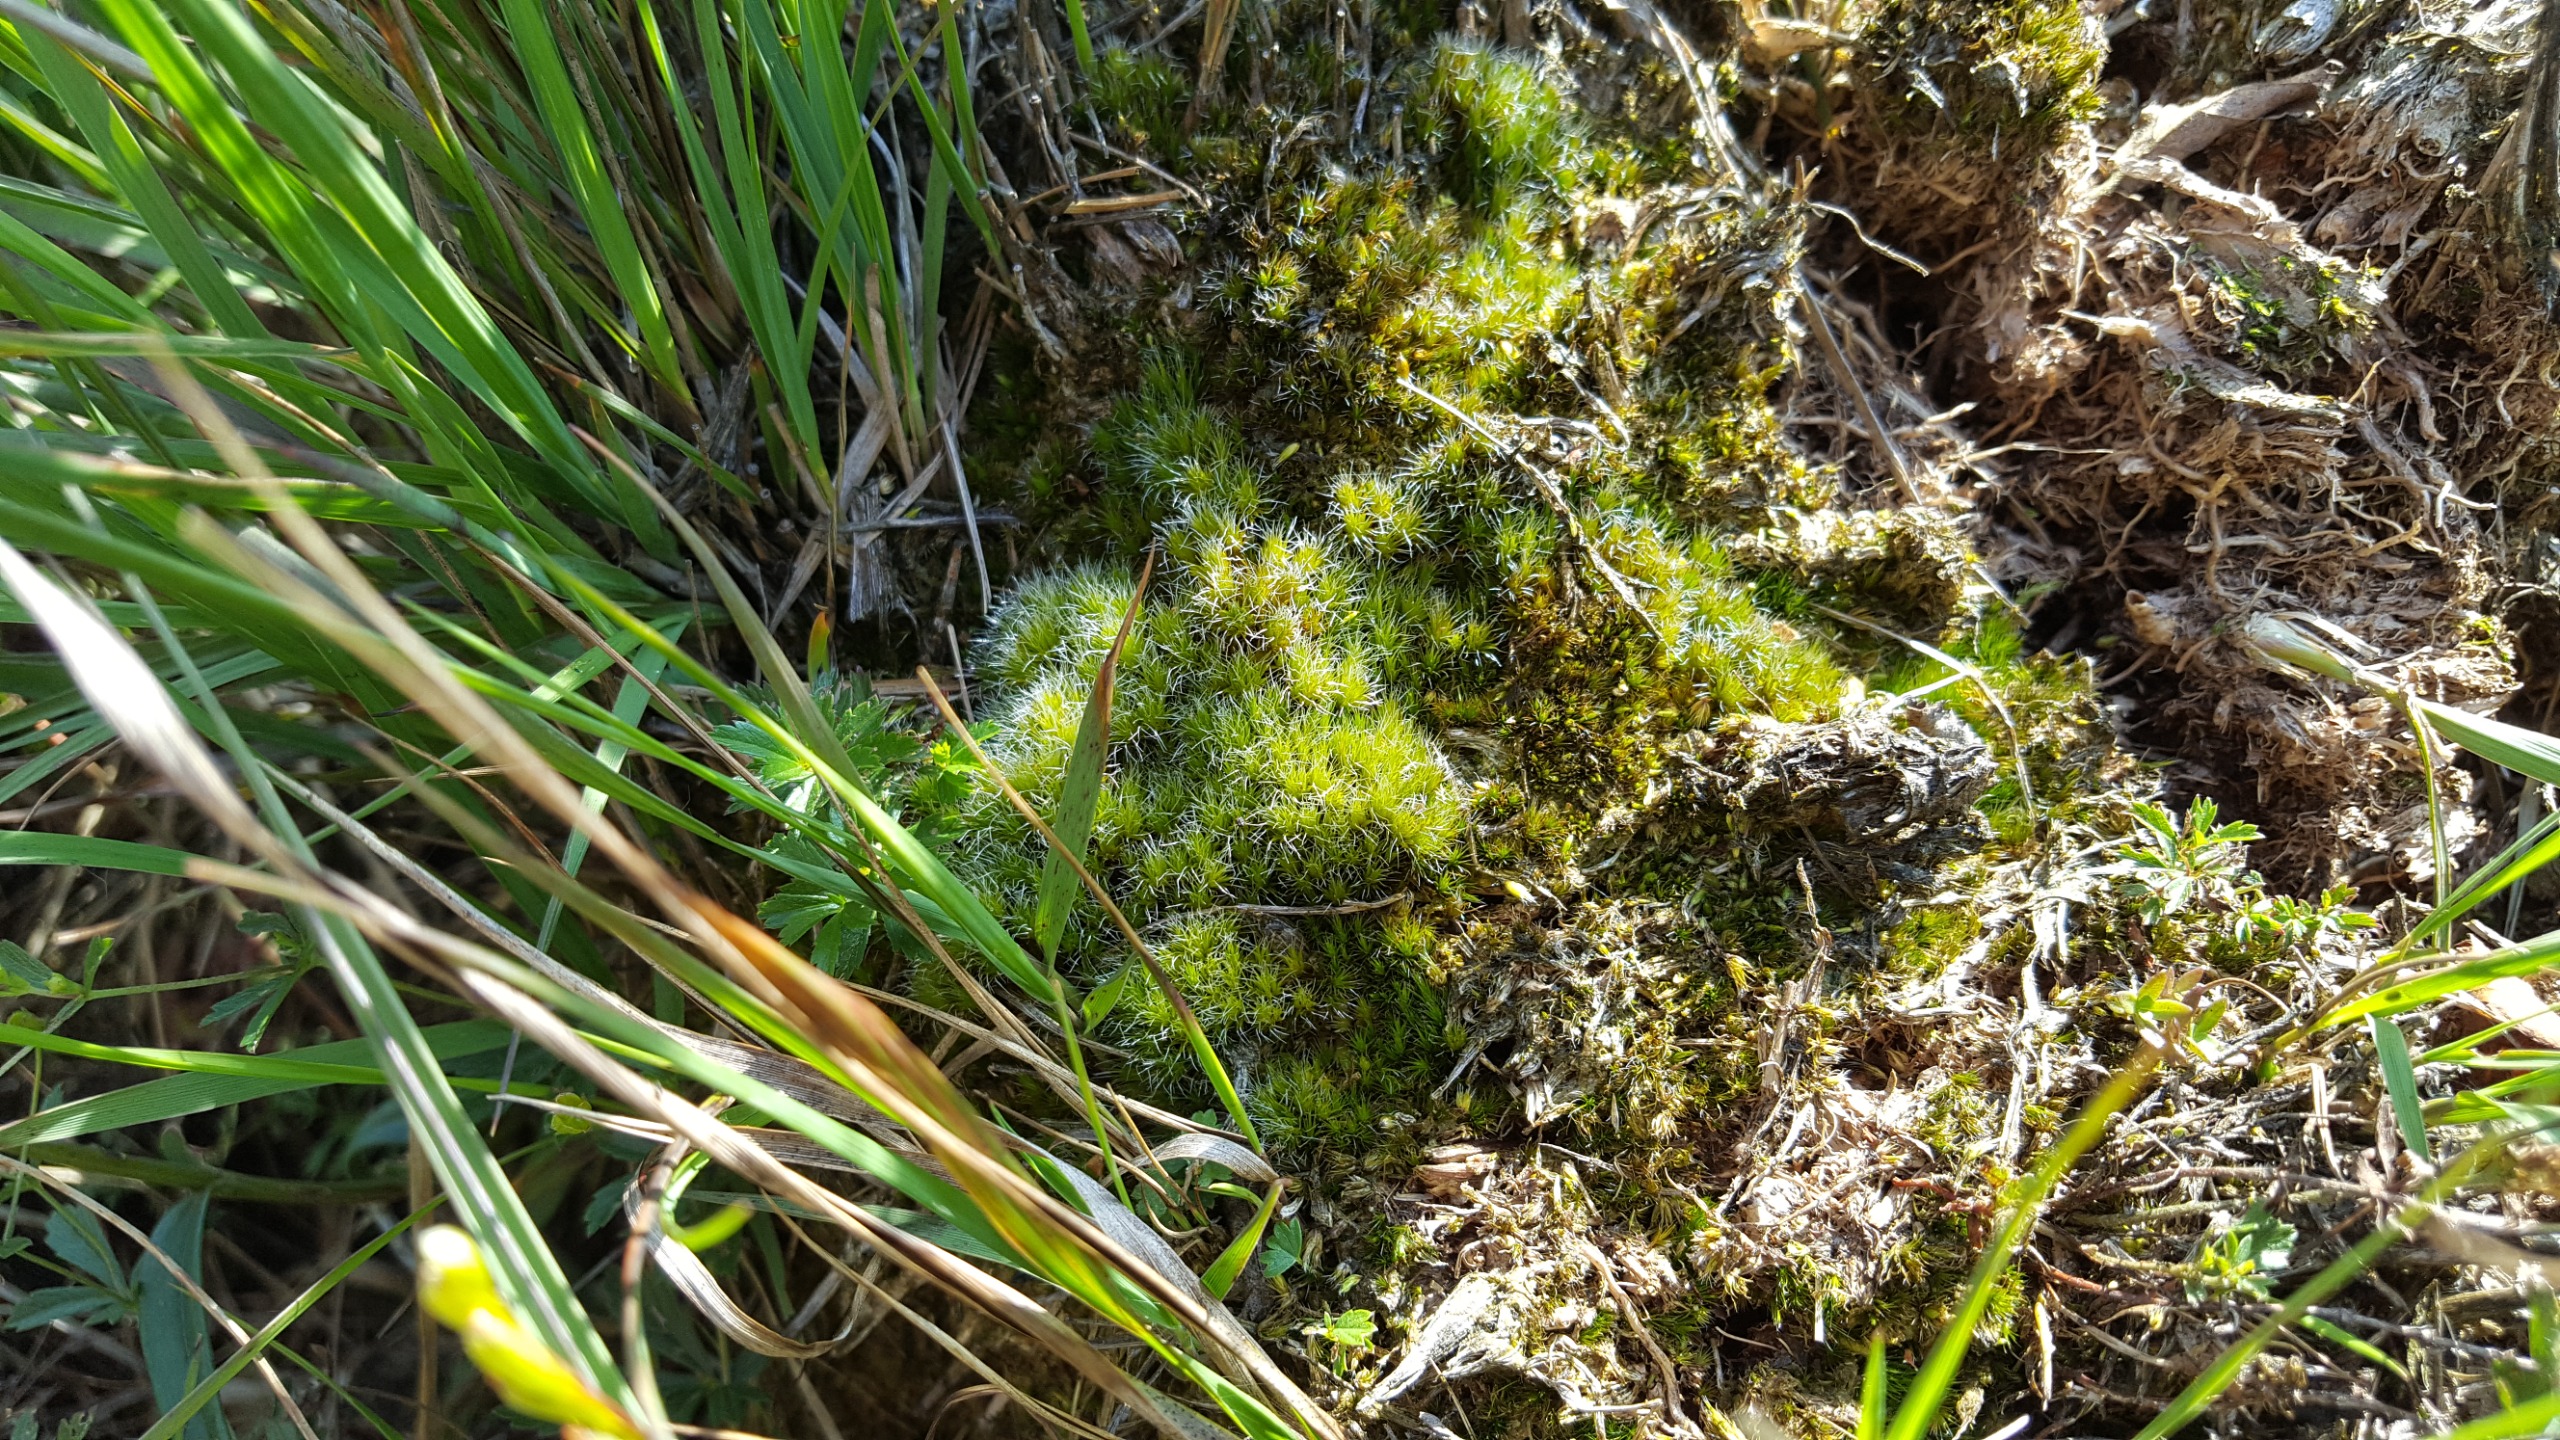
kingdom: Plantae
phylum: Bryophyta
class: Bryopsida
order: Dicranales
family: Leucobryaceae
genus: Campylopus
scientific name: Campylopus introflexus
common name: Stjerne-bredribbe
